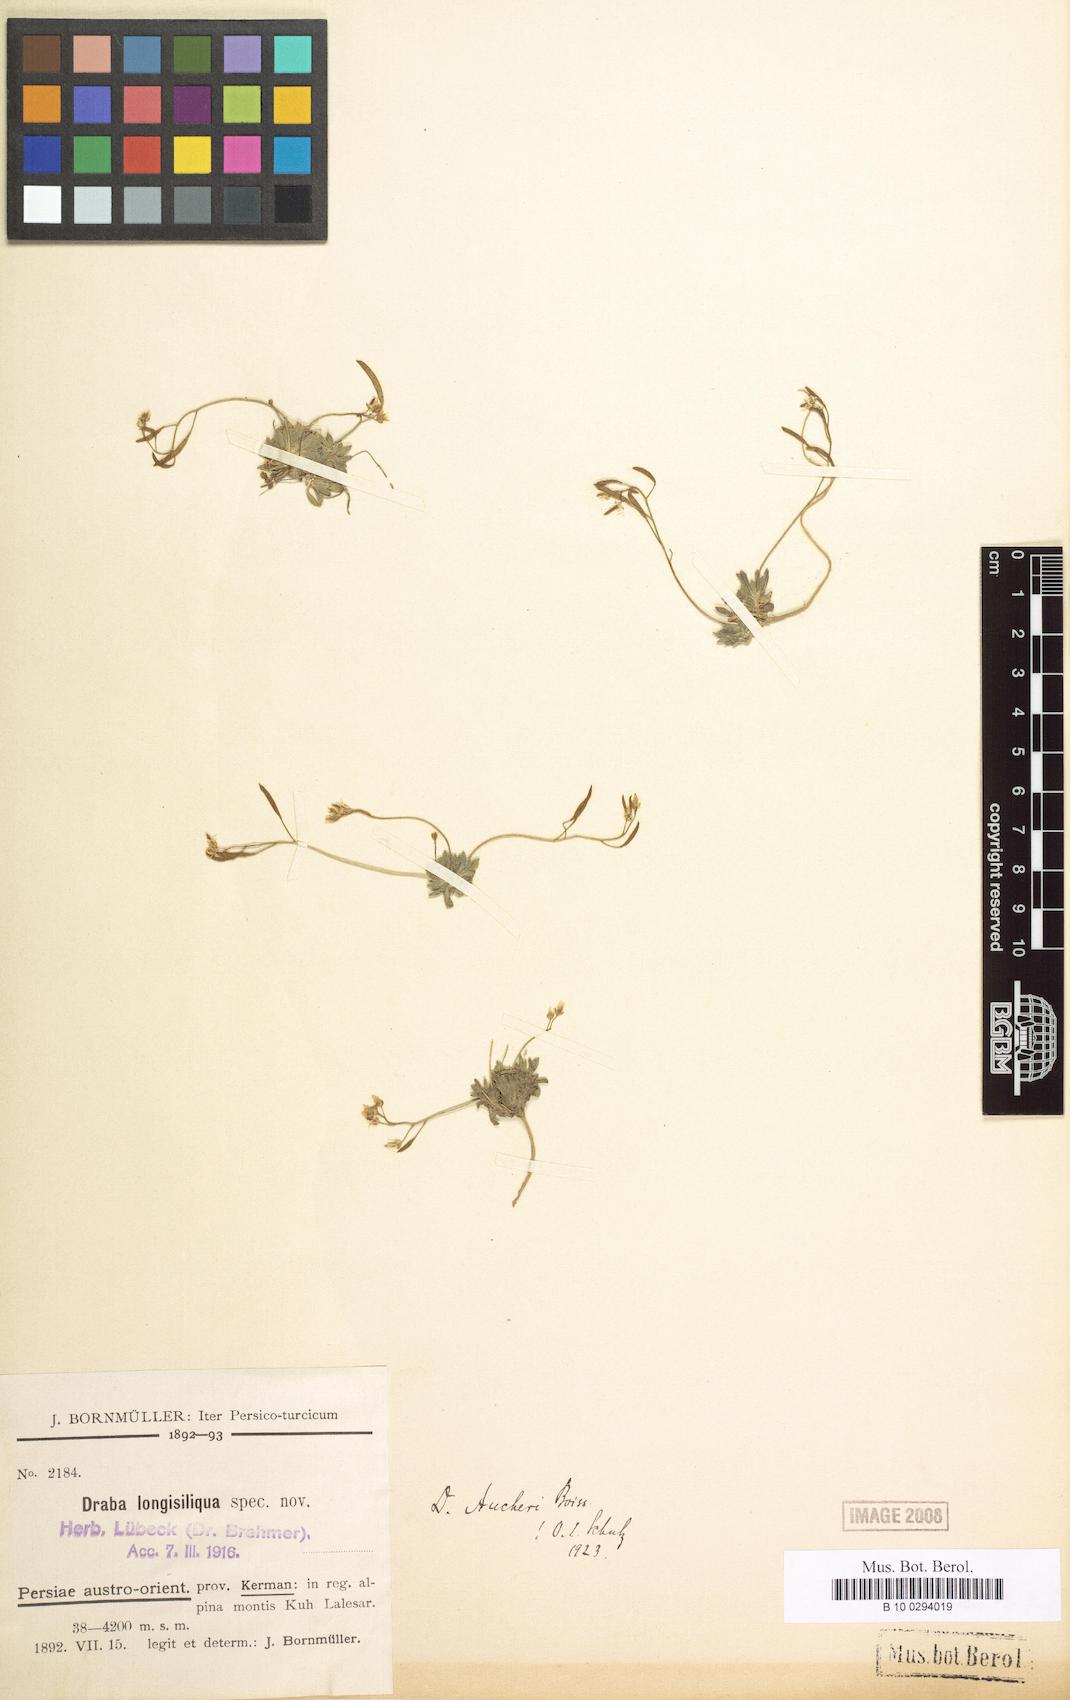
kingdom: Plantae
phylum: Tracheophyta
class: Magnoliopsida
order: Brassicales
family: Brassicaceae
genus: Draba
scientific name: Draba aucheri
